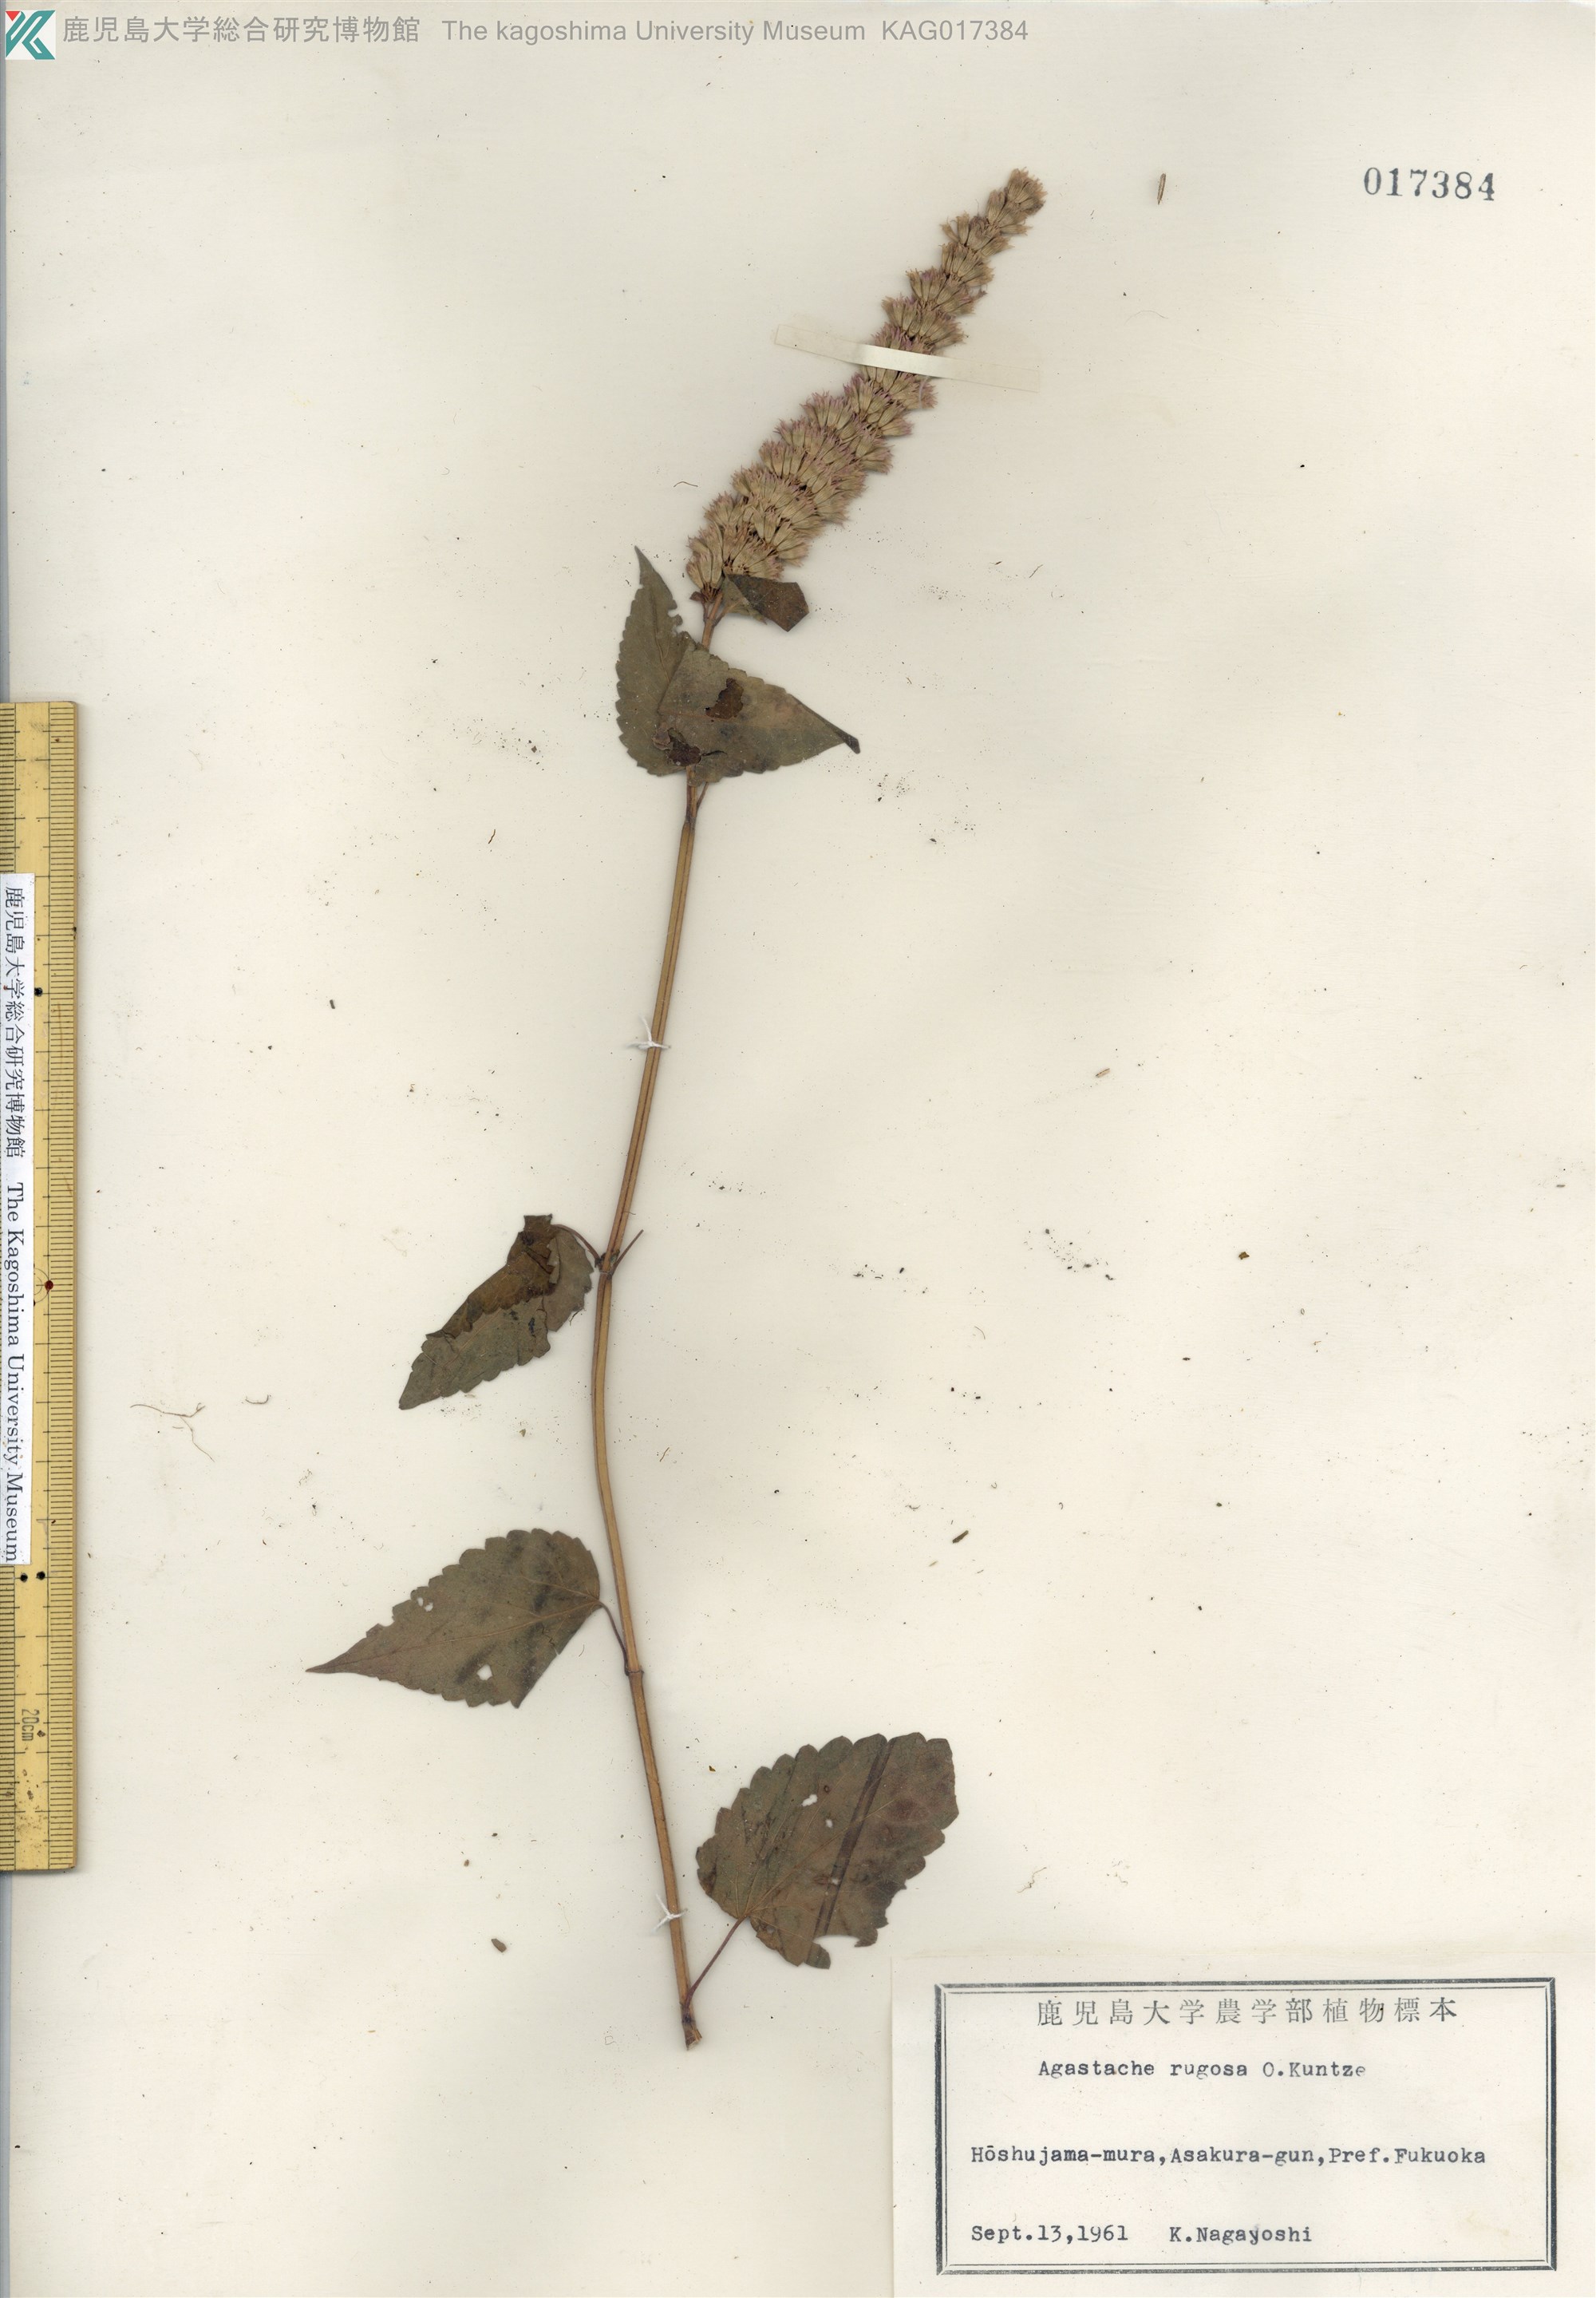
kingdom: Plantae
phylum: Tracheophyta
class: Magnoliopsida
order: Lamiales
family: Lamiaceae
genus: Agastache
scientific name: Agastache rugosa
